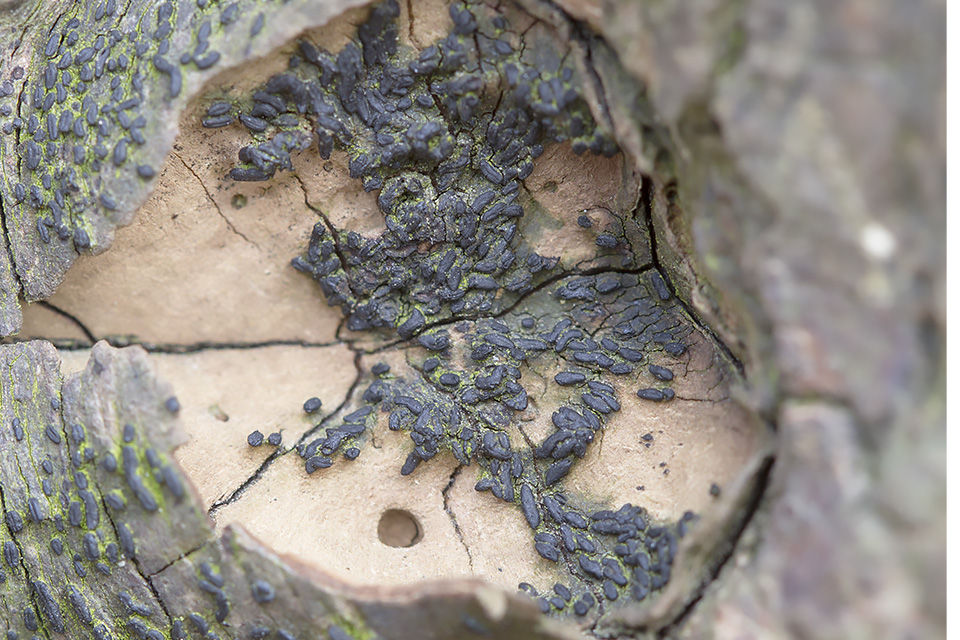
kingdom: Fungi
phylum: Ascomycota
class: Dothideomycetes
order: Hysteriales
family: Hysteriaceae
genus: Hysterium
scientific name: Hysterium acuminatum
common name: almindelig kulmund
